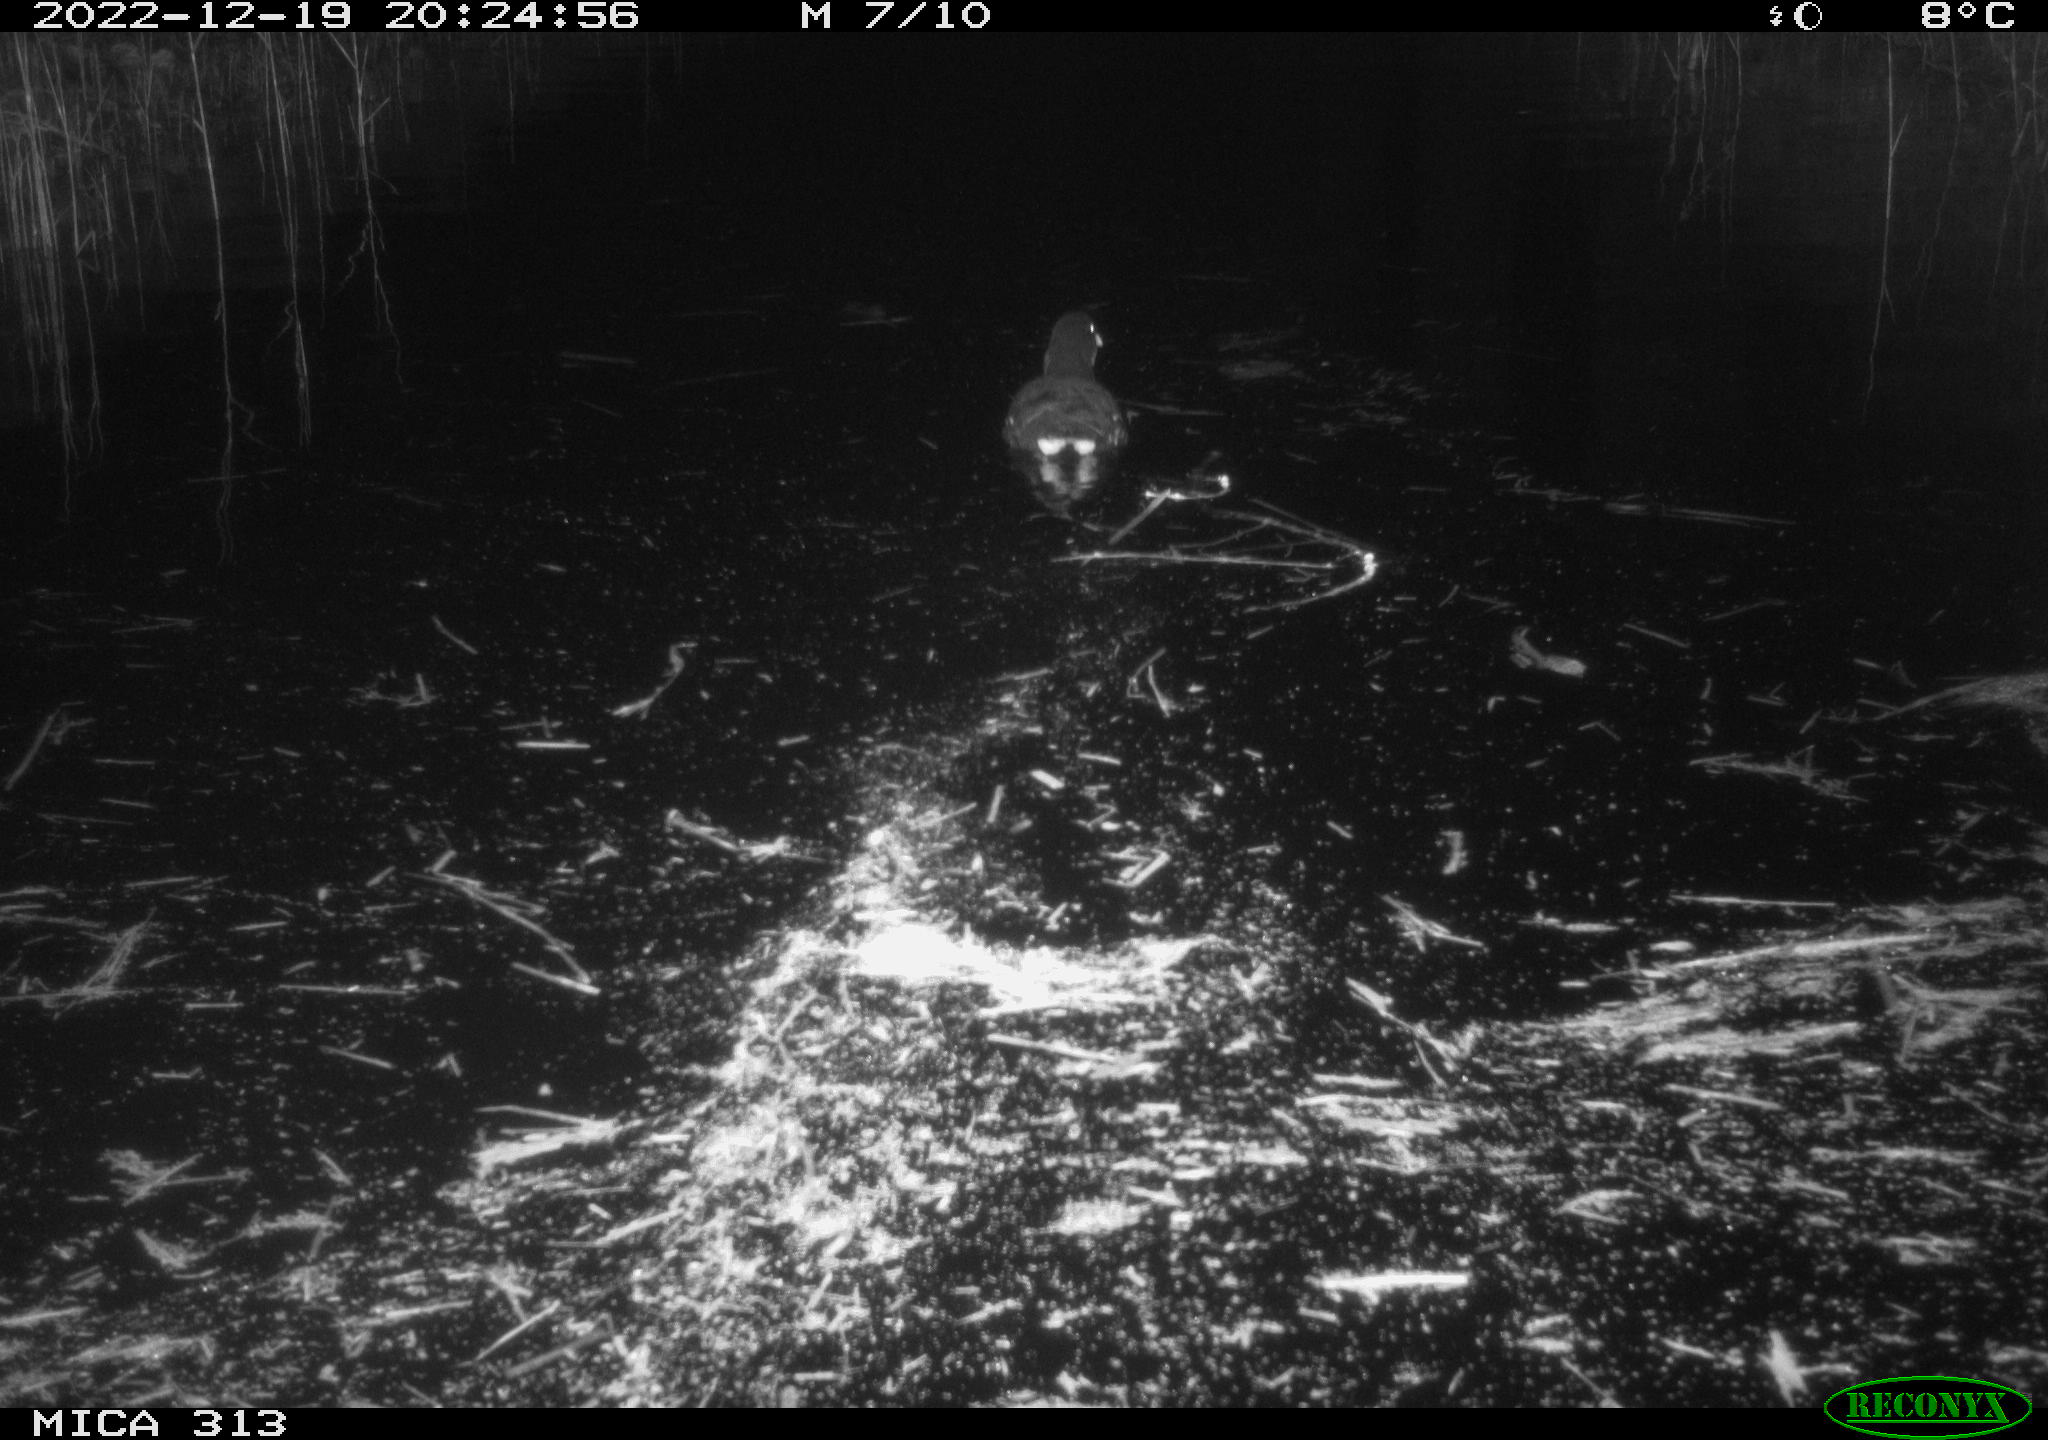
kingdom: Animalia
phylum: Chordata
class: Aves
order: Gruiformes
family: Rallidae
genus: Gallinula
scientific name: Gallinula chloropus
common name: Common moorhen
